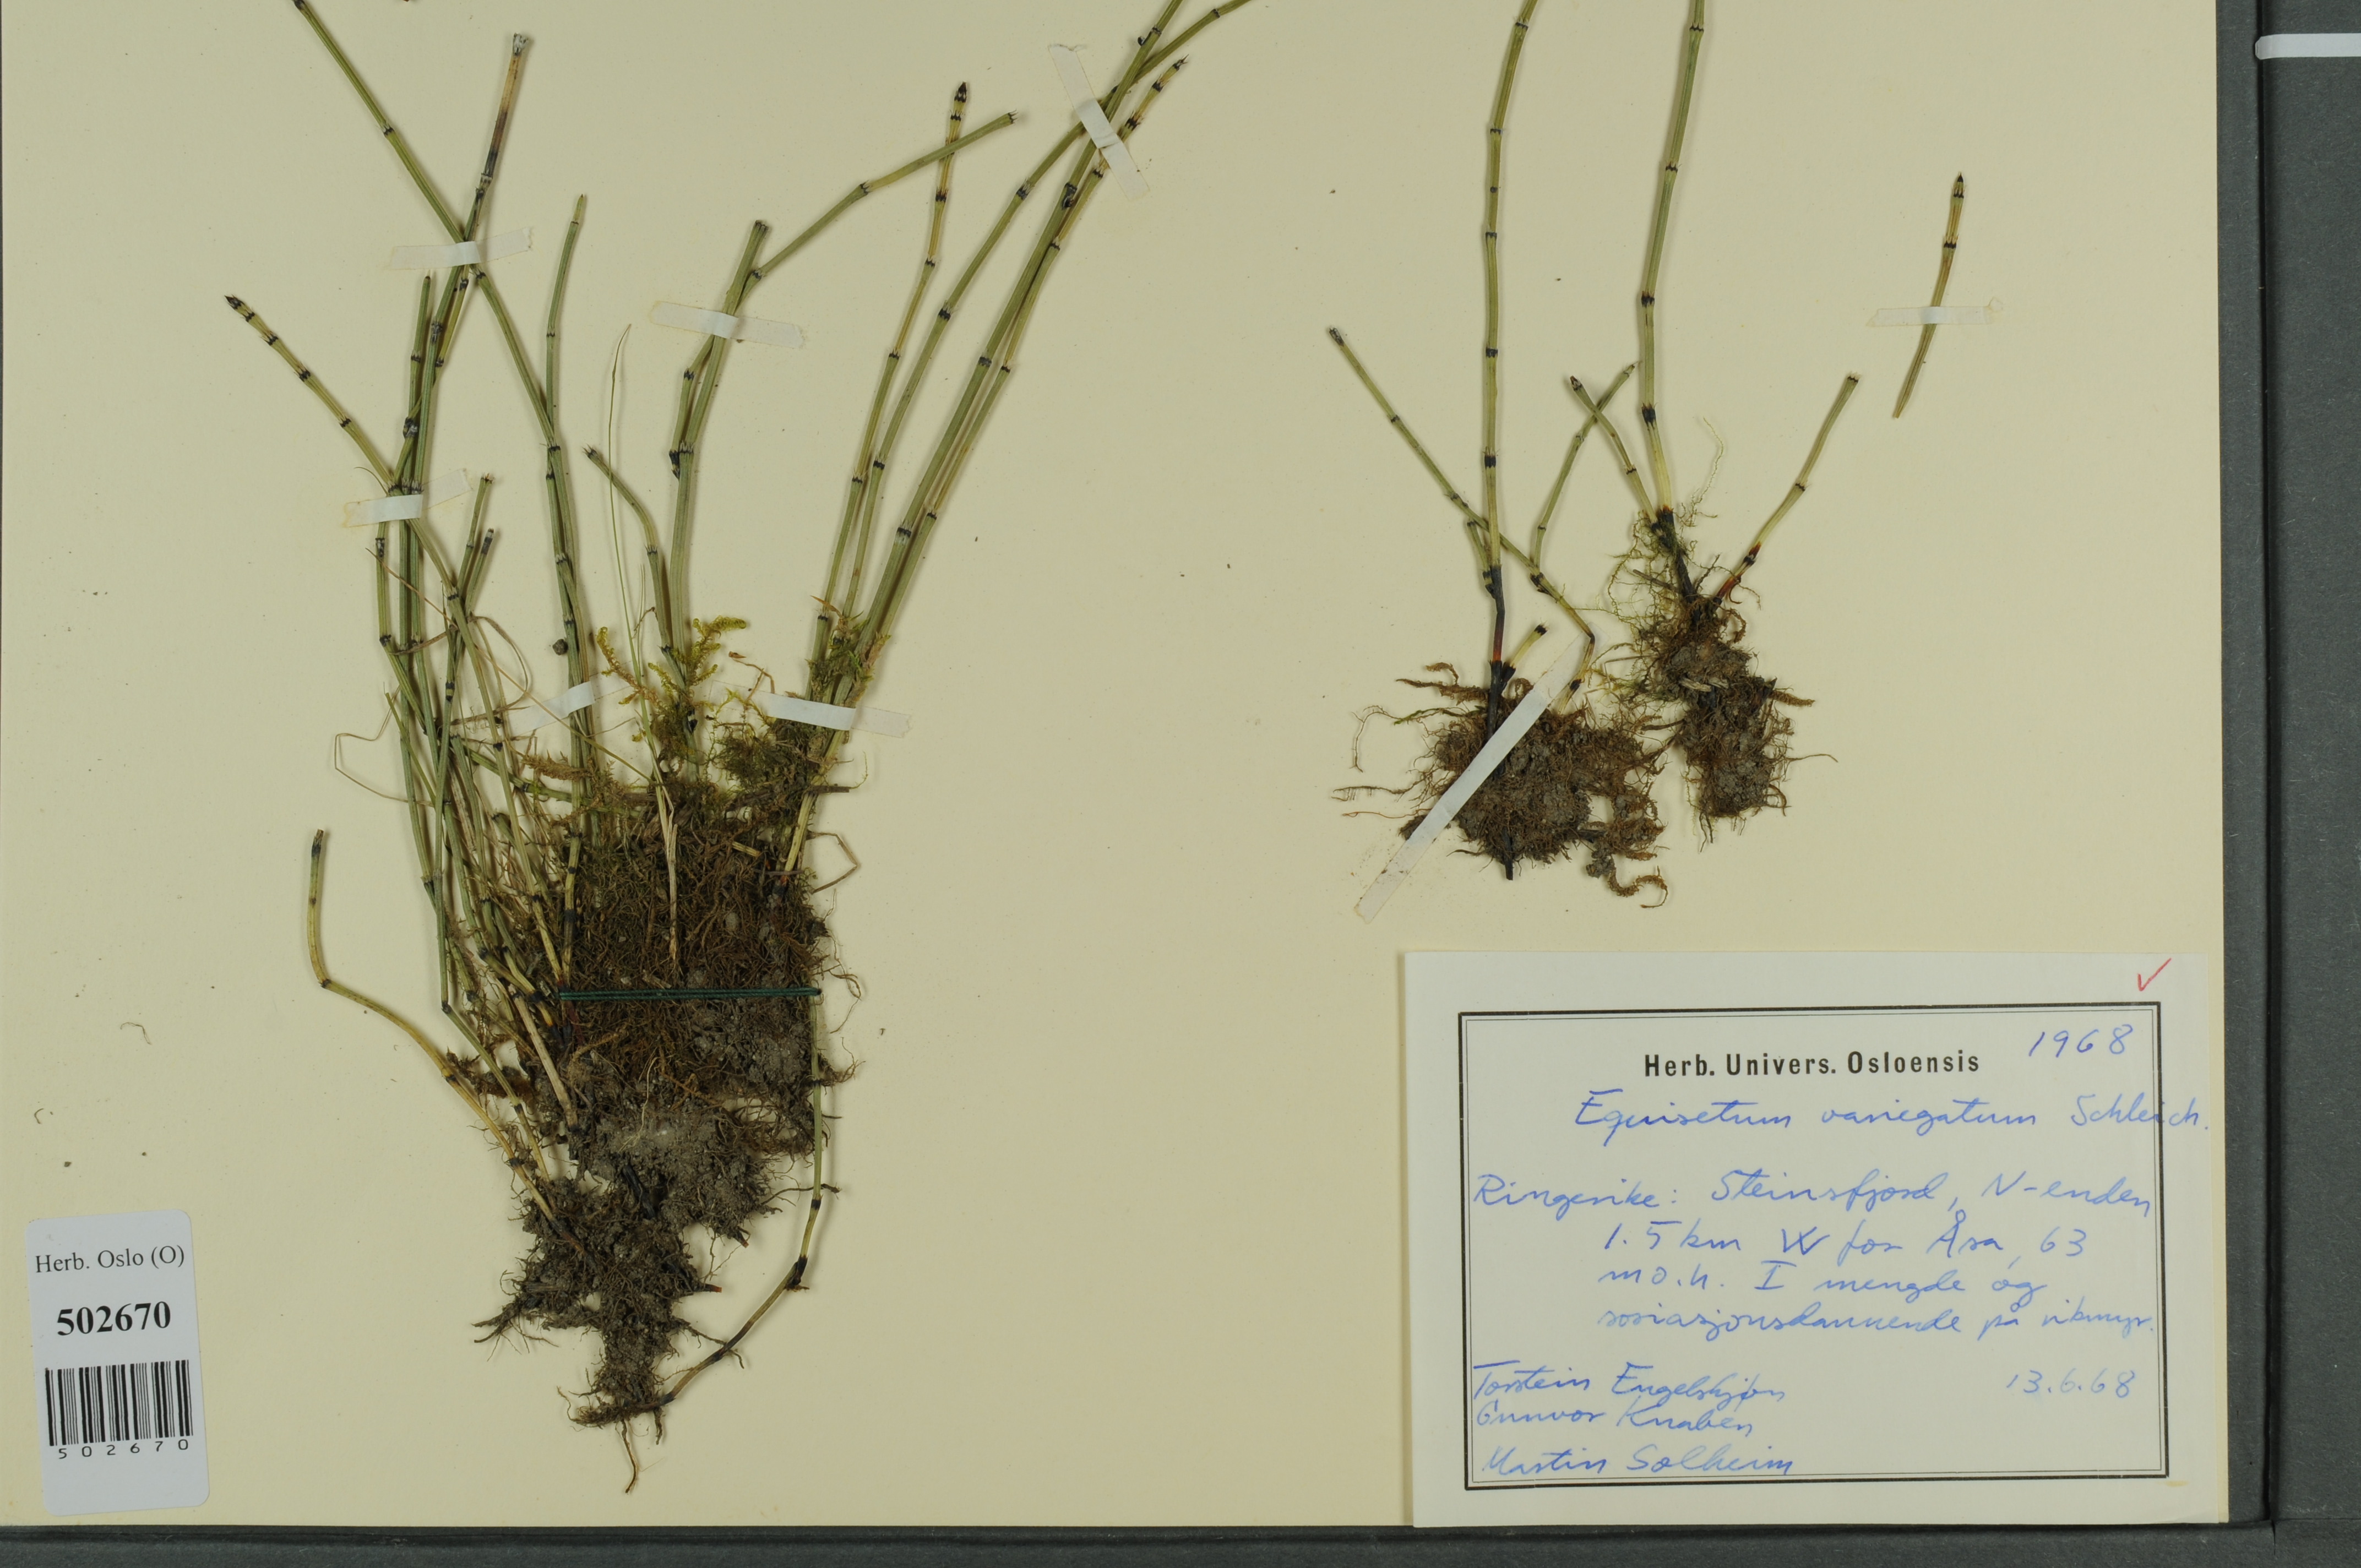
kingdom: Plantae
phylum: Tracheophyta
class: Polypodiopsida
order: Equisetales
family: Equisetaceae
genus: Equisetum
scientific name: Equisetum variegatum
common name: Variegated horsetail
